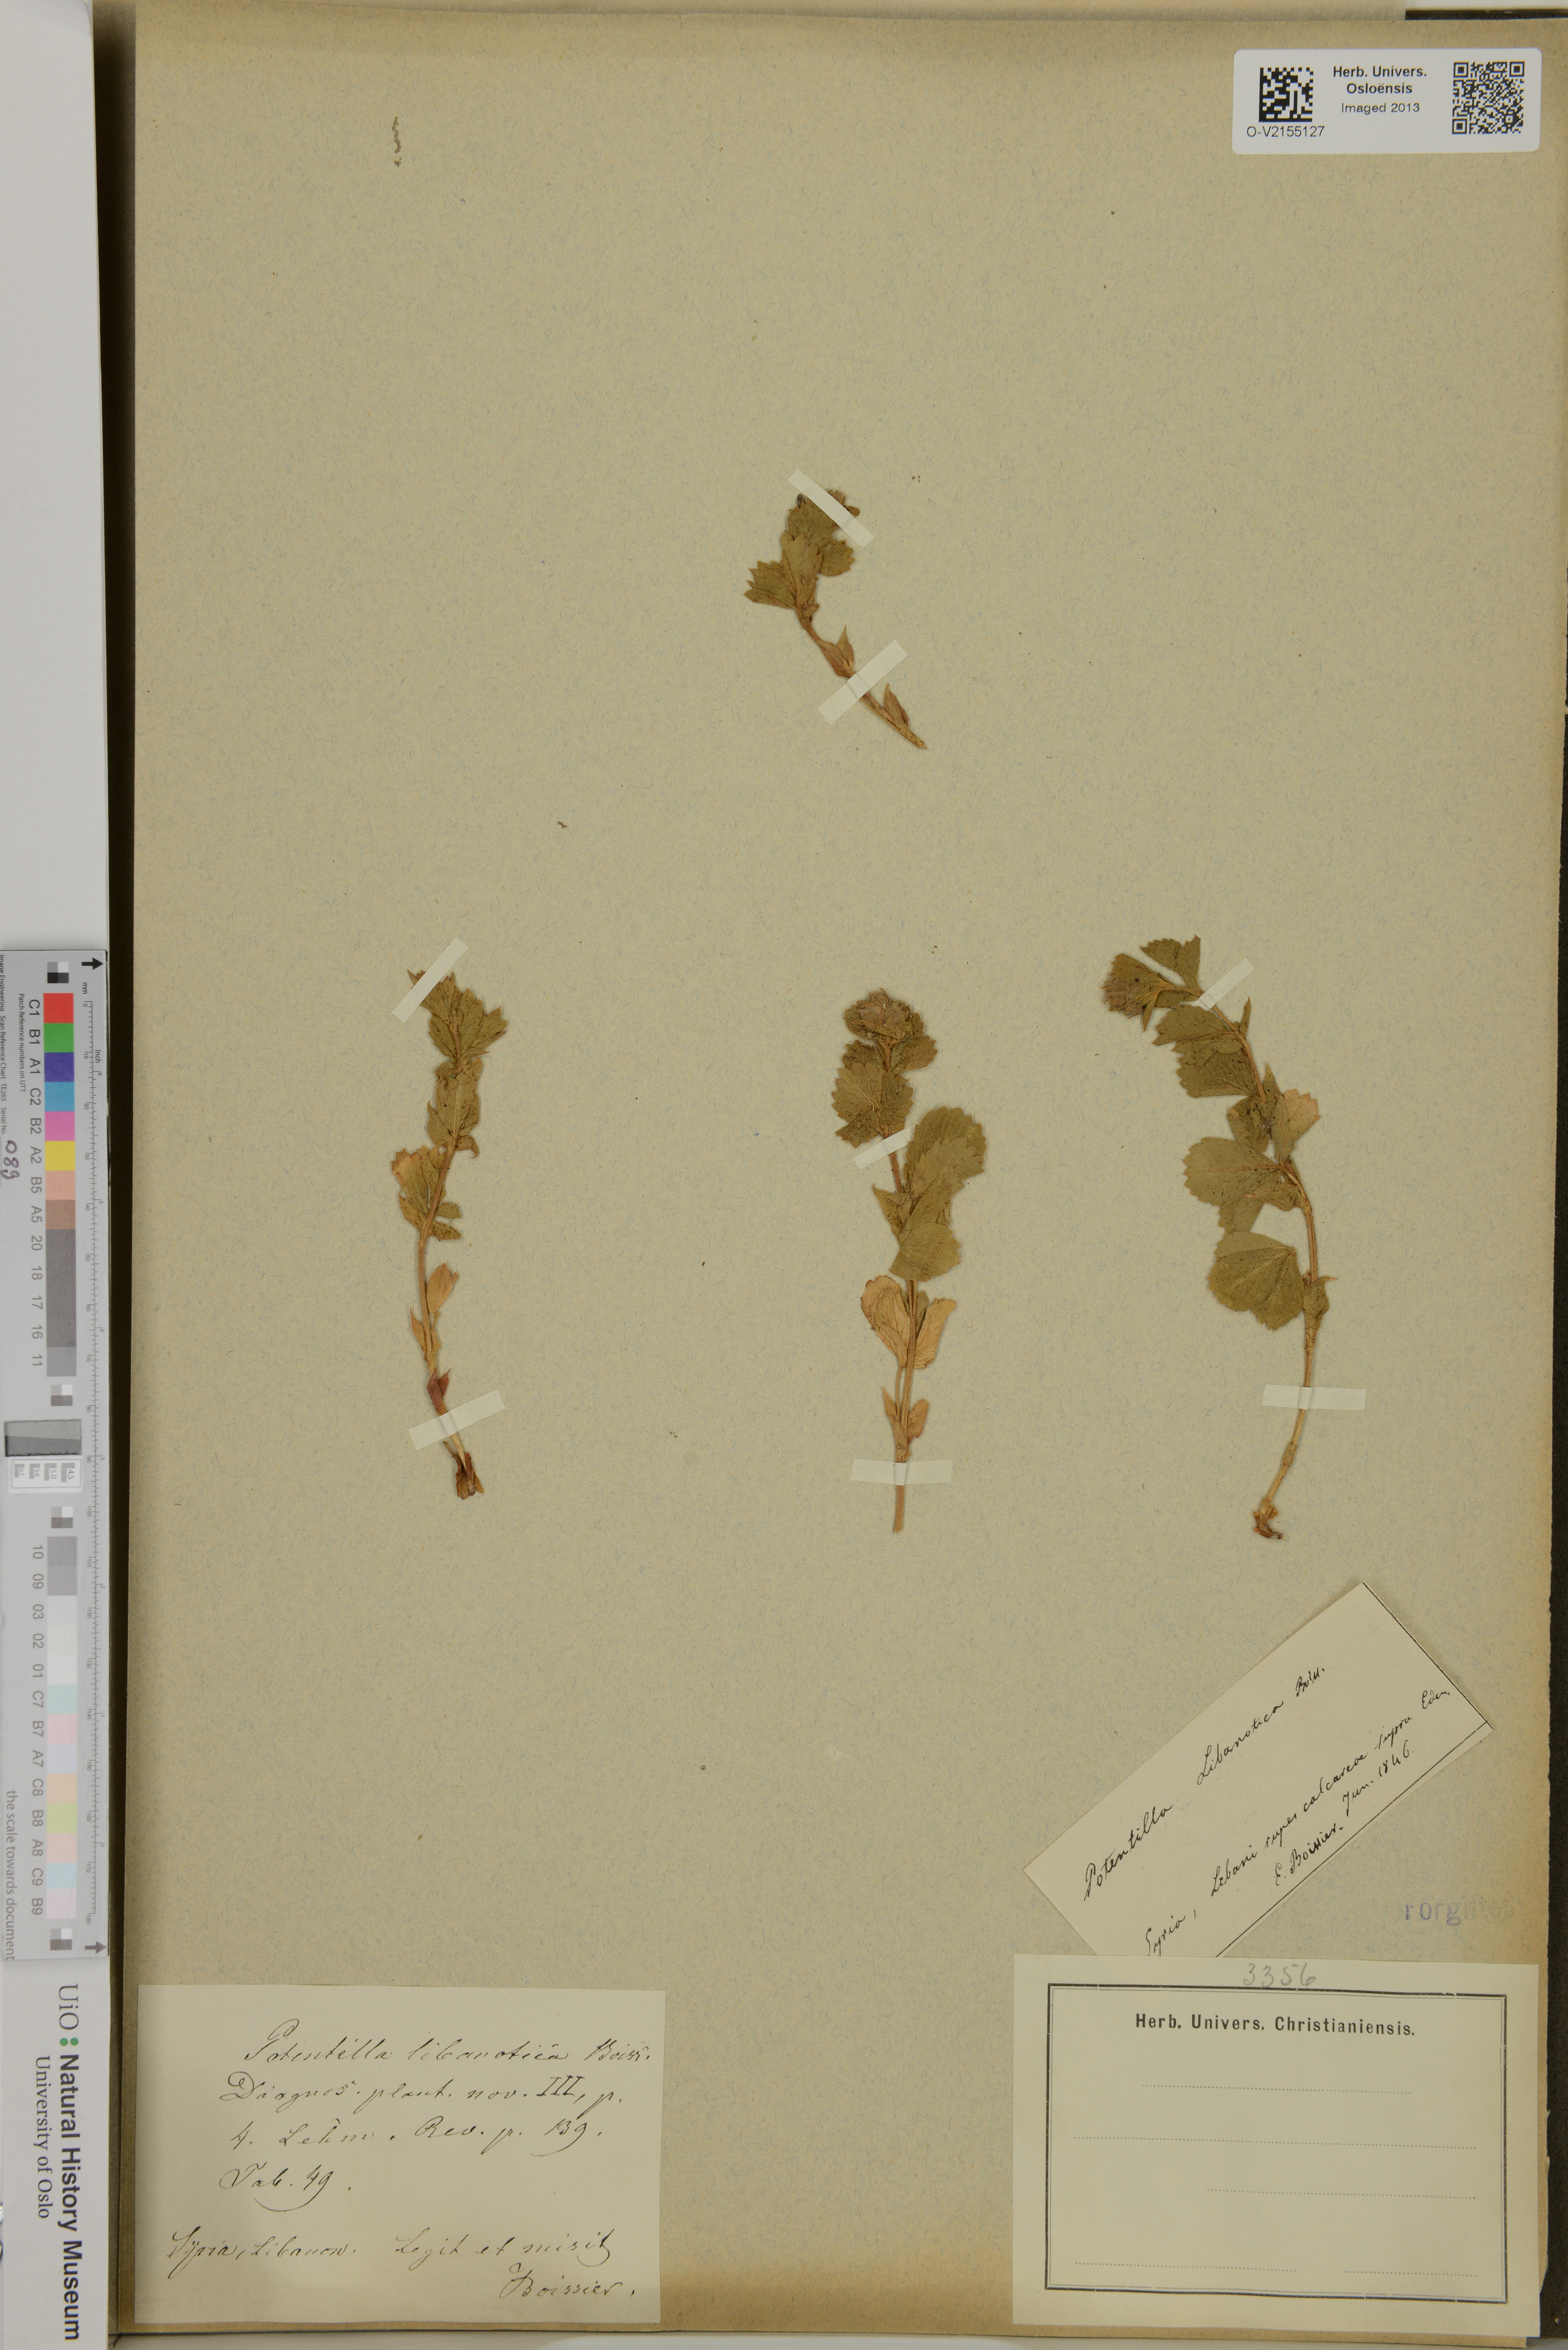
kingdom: Plantae
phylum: Tracheophyta
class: Magnoliopsida
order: Rosales
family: Rosaceae
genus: Potentilla
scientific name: Potentilla libanotica
